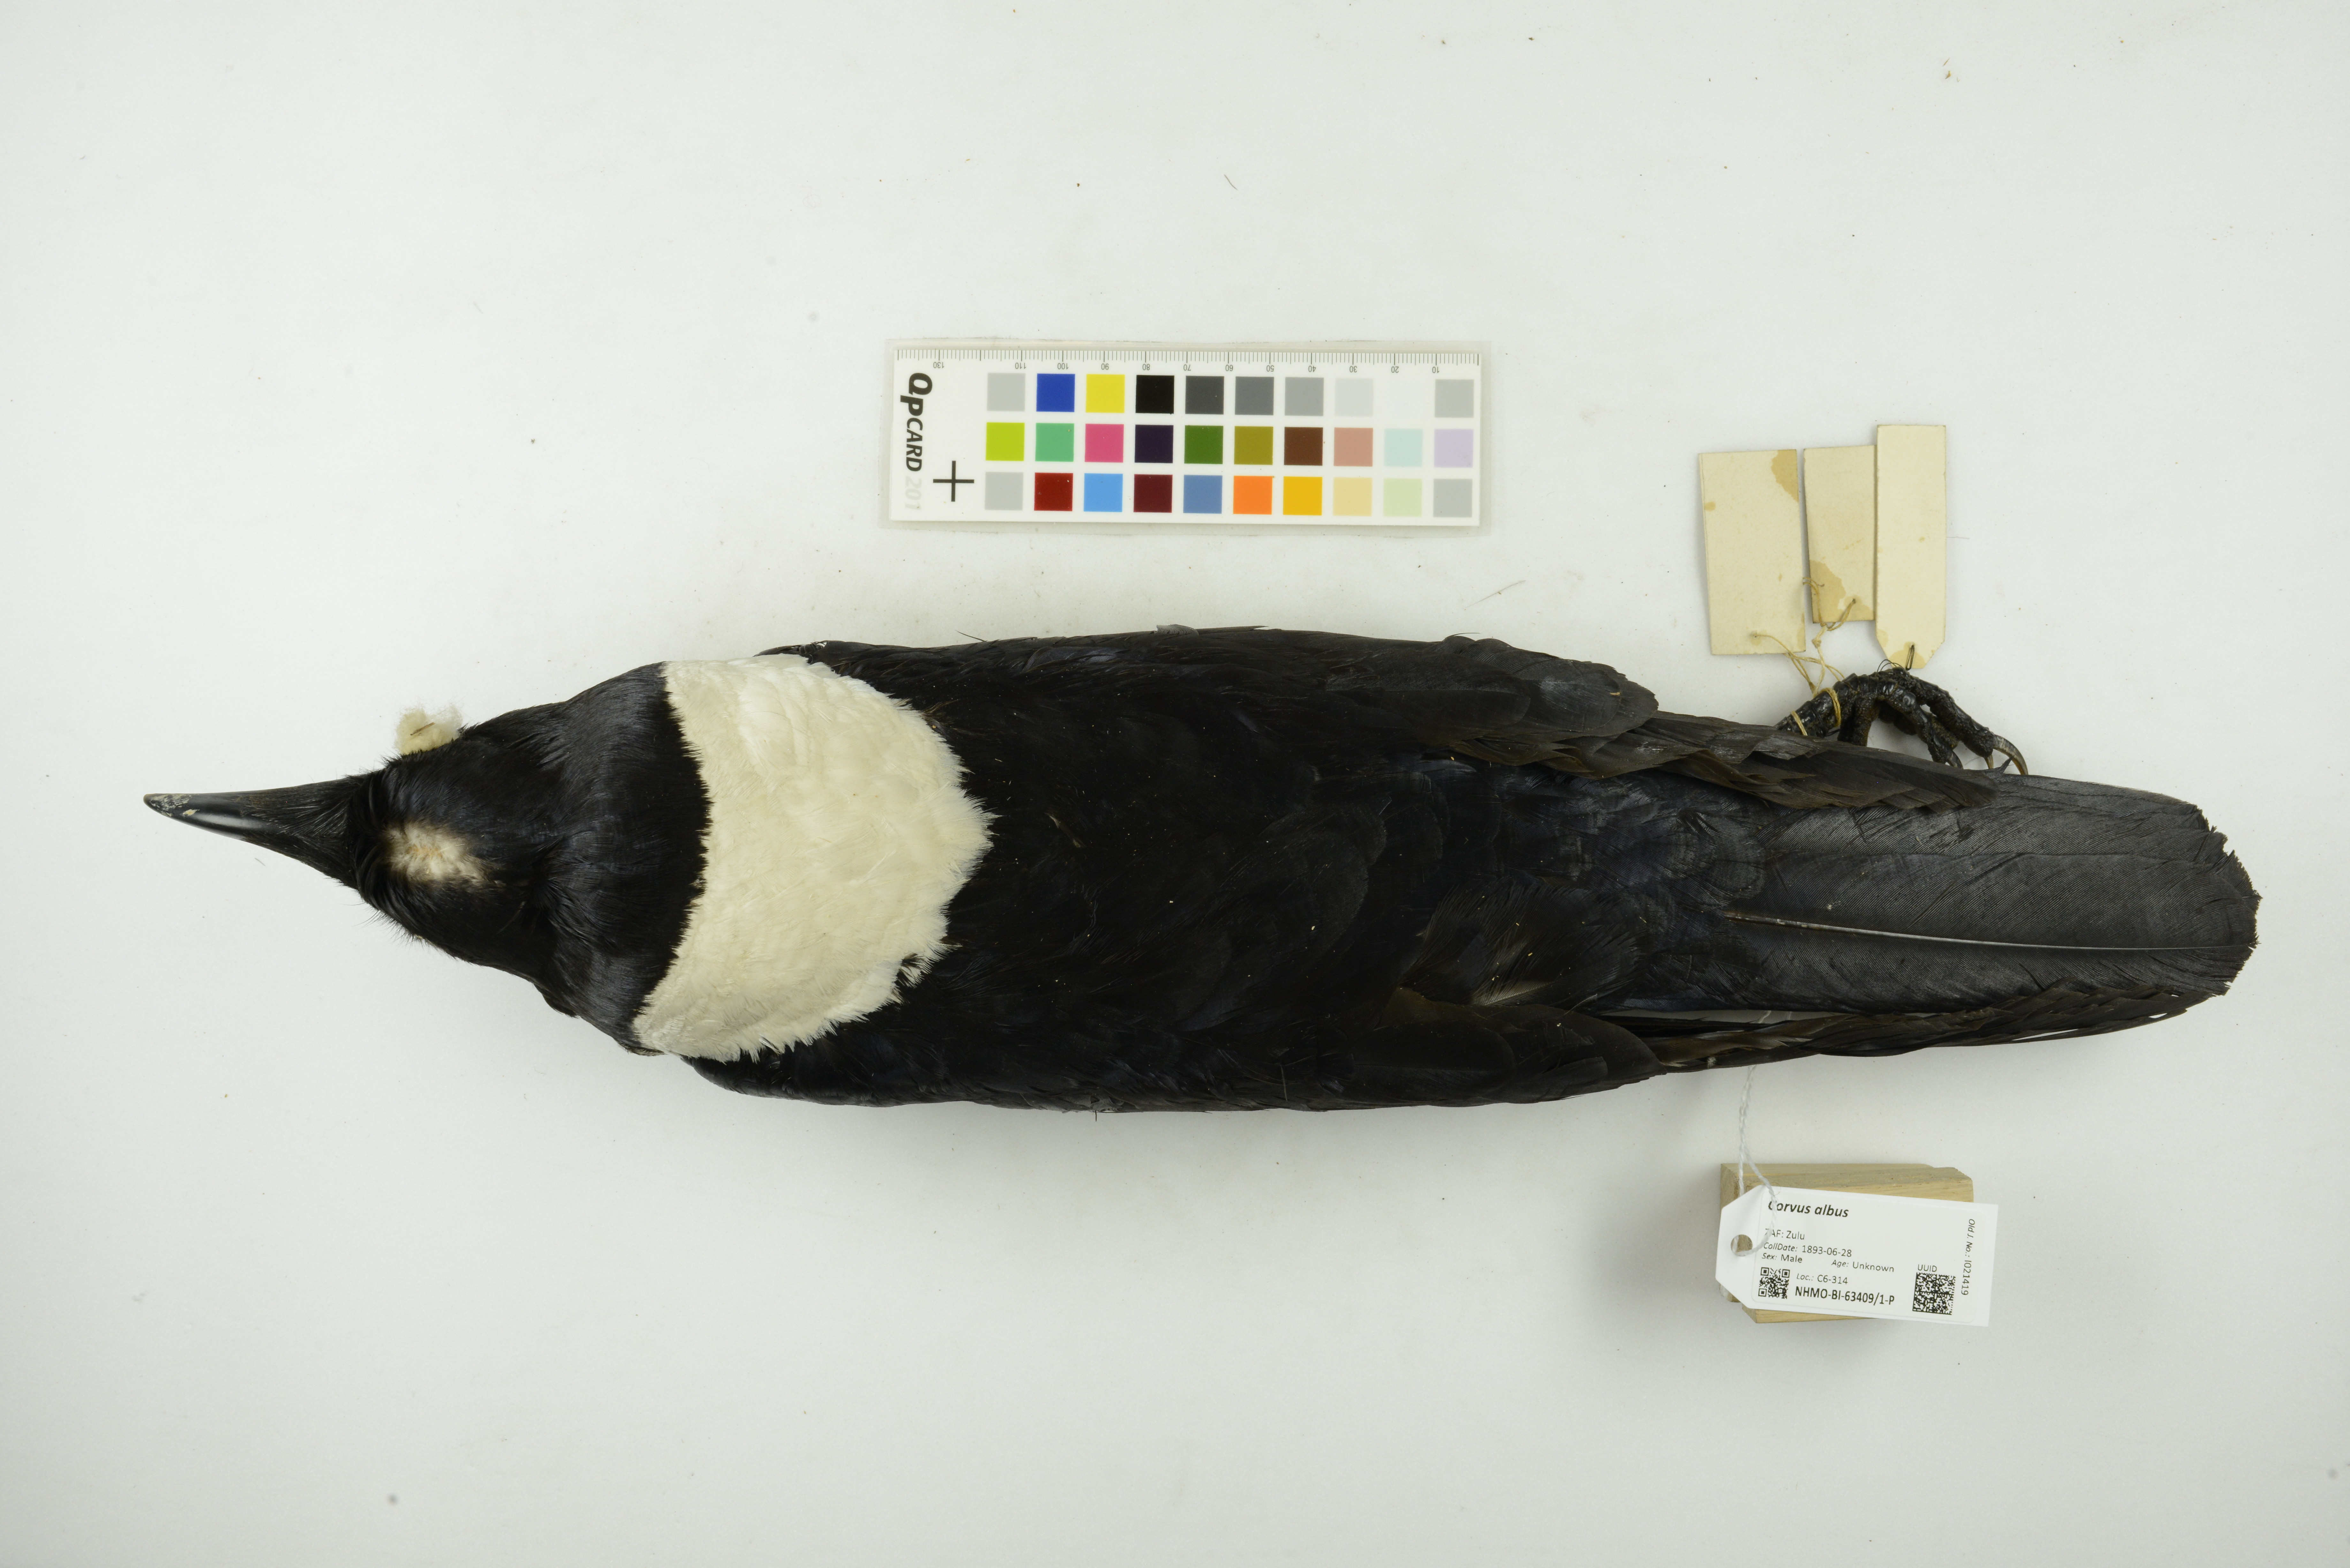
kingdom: Animalia
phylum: Chordata
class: Aves
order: Passeriformes
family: Corvidae
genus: Corvus
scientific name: Corvus albus
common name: Pied crow
